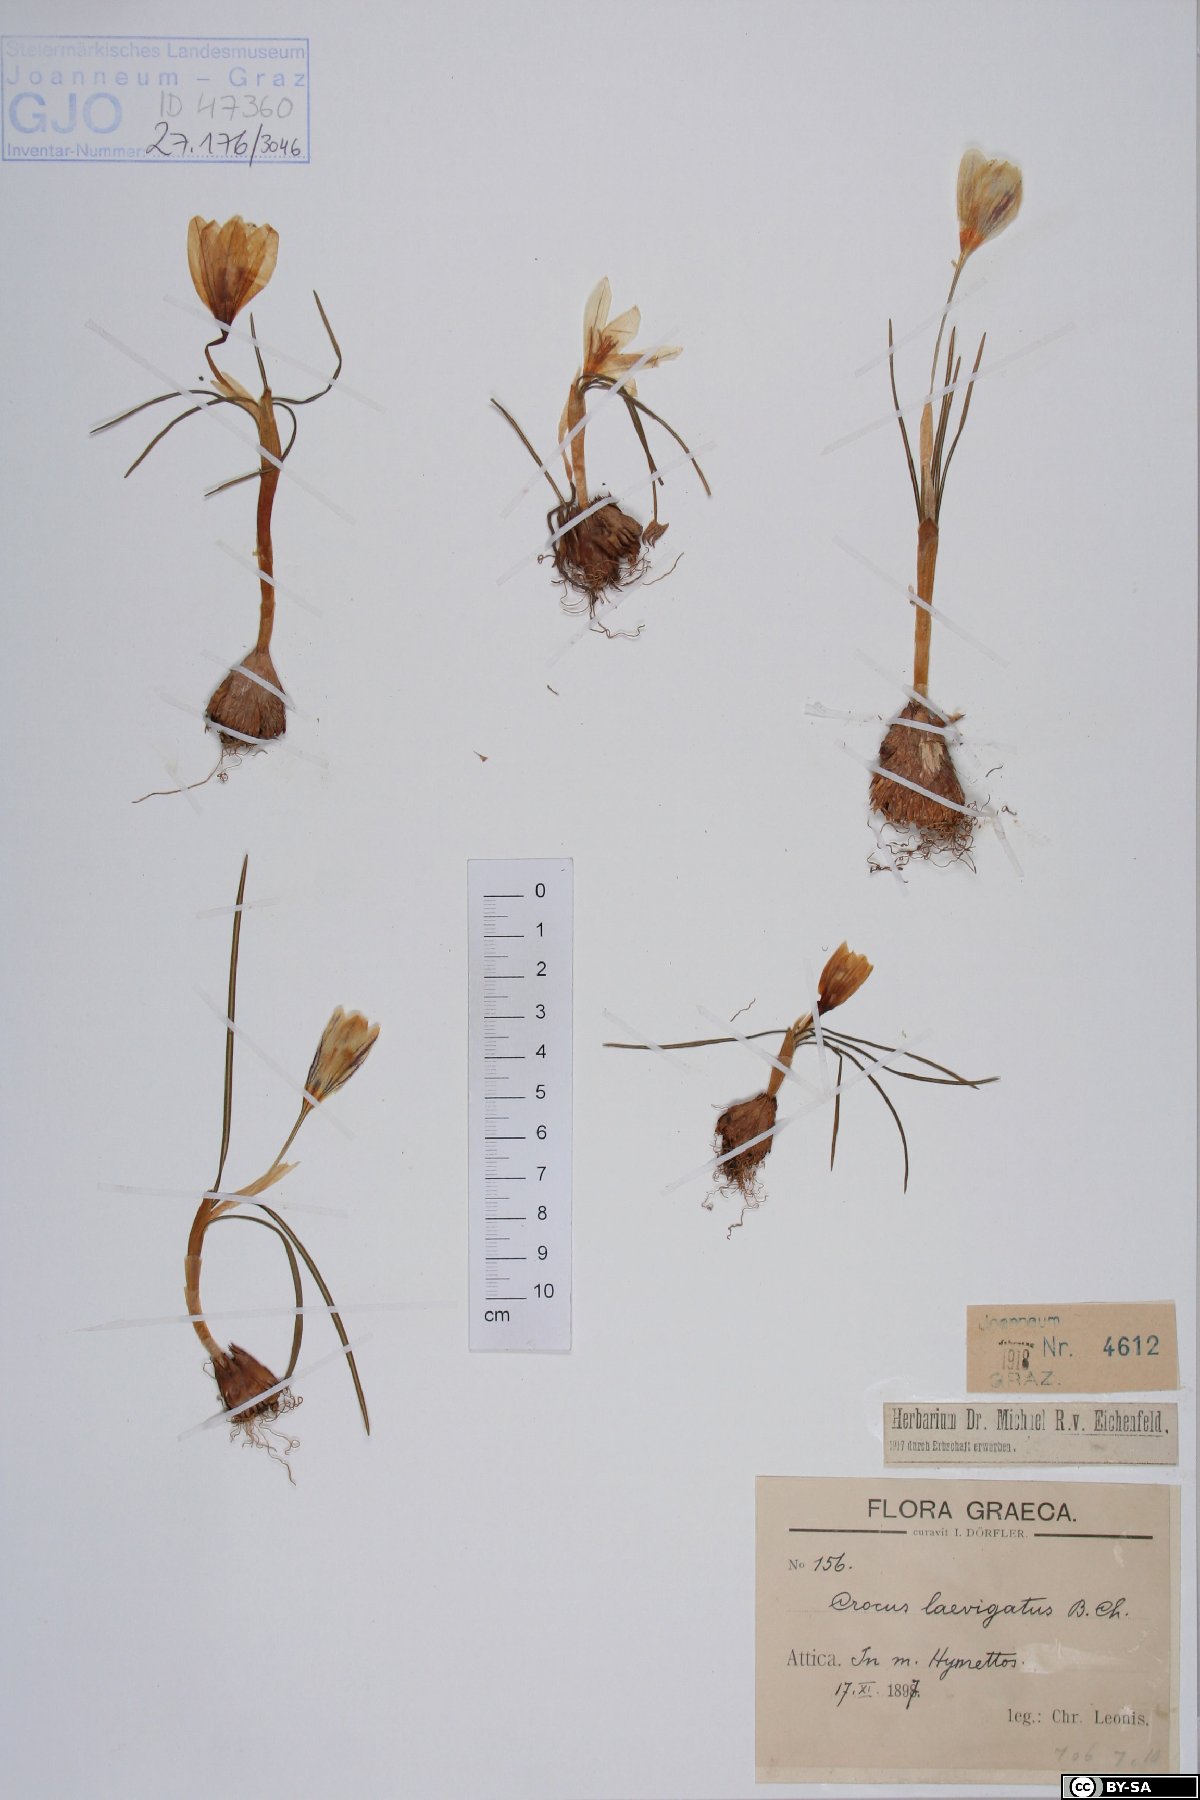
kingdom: Plantae
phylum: Tracheophyta
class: Liliopsida
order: Asparagales
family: Iridaceae
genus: Crocus
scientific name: Crocus laevigatus
